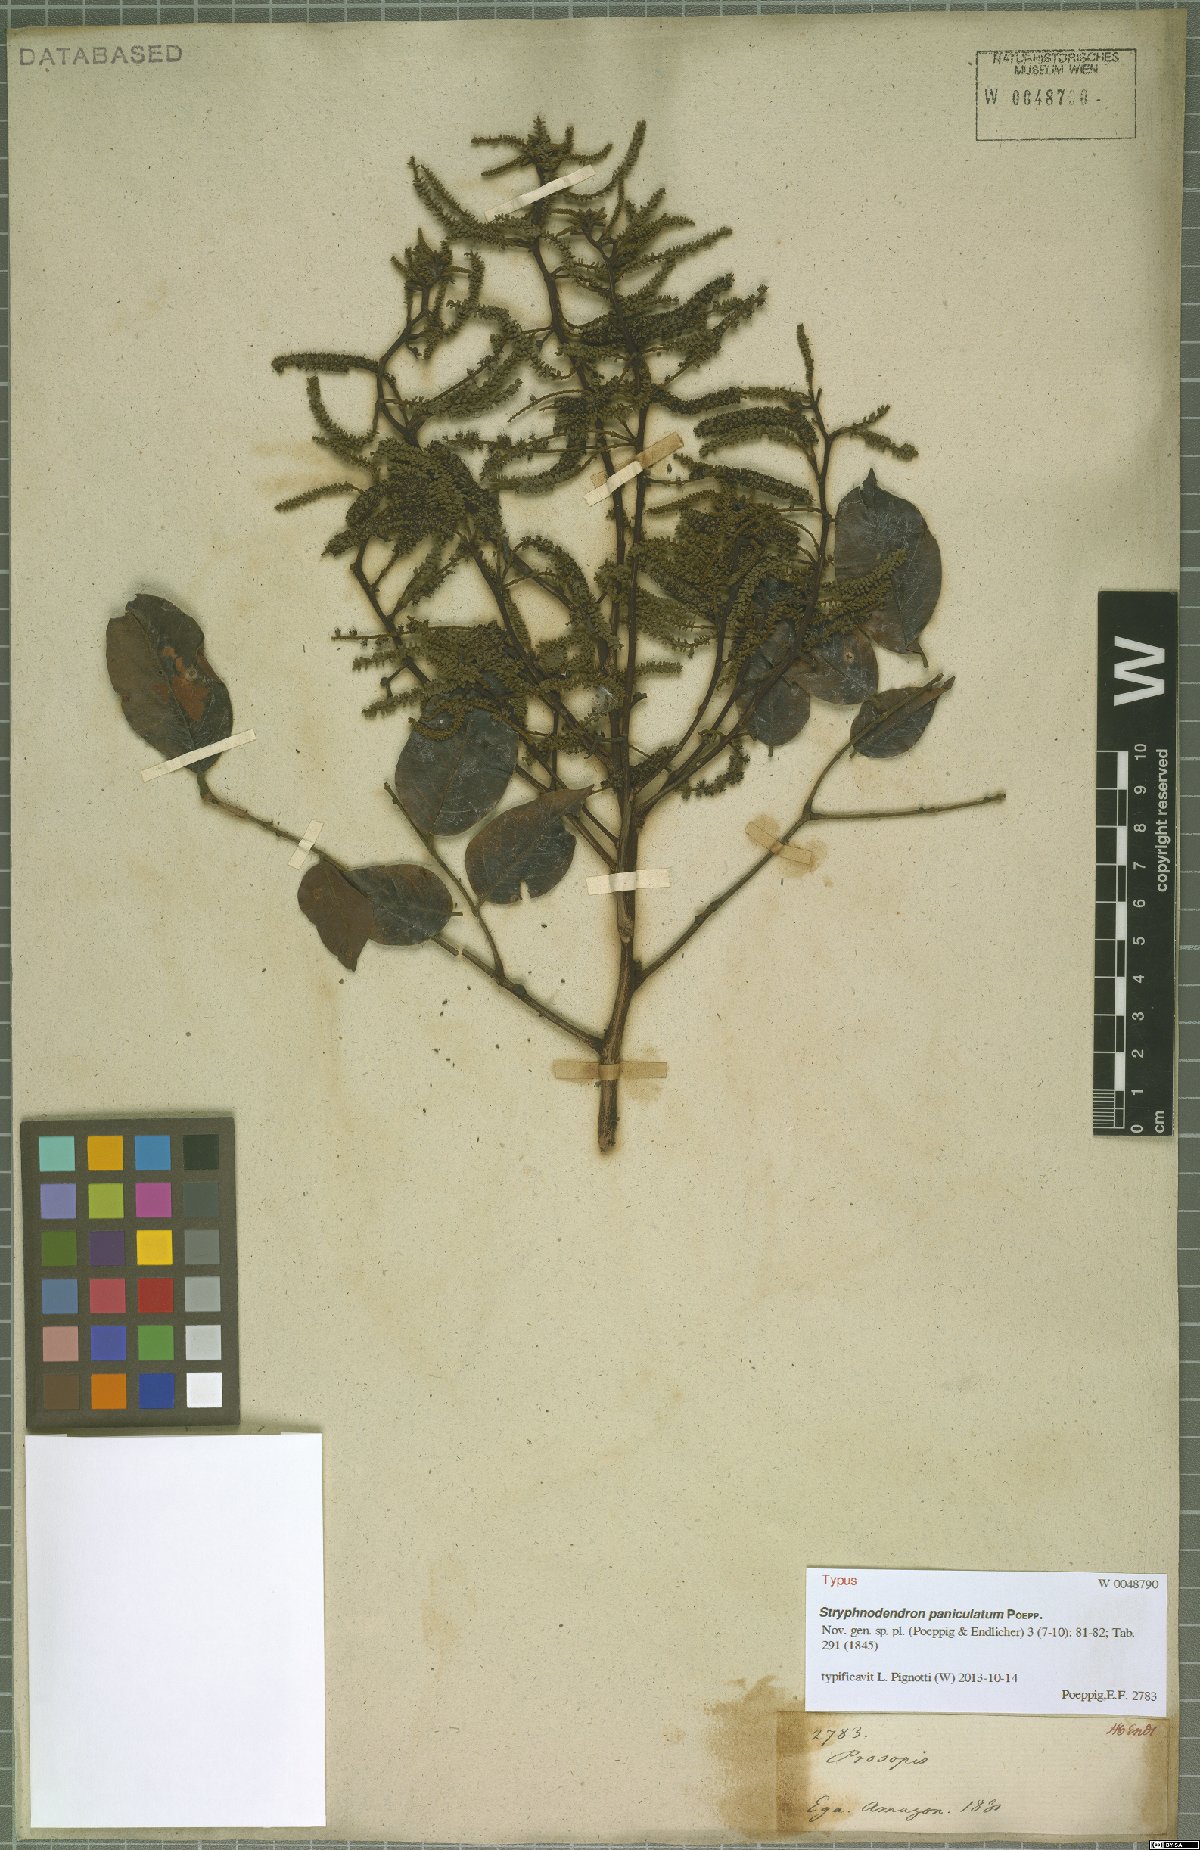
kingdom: Plantae
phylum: Tracheophyta
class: Magnoliopsida
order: Fabales
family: Fabaceae
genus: Stryphnodendron
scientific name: Stryphnodendron paniculatum
